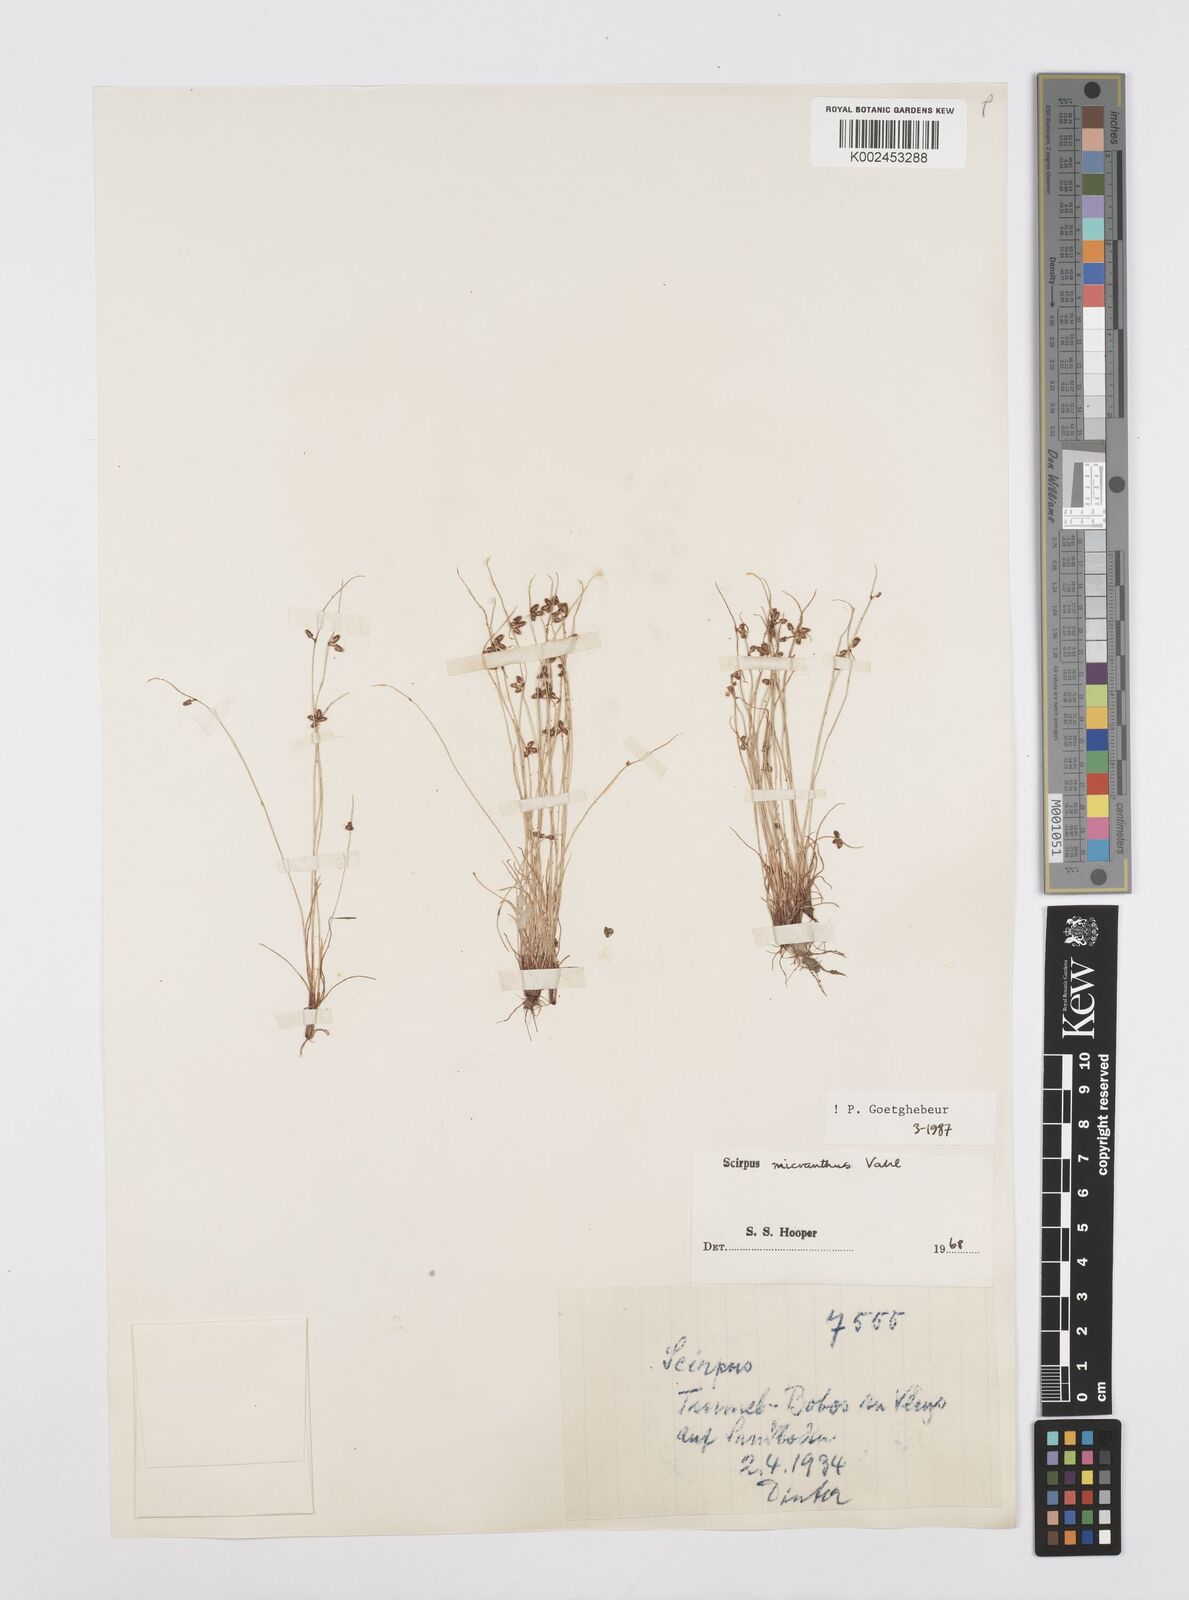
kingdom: Plantae
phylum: Tracheophyta
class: Liliopsida
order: Poales
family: Cyperaceae
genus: Cyperus
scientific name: Cyperus dentatus
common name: Dentate umbrella sedge
